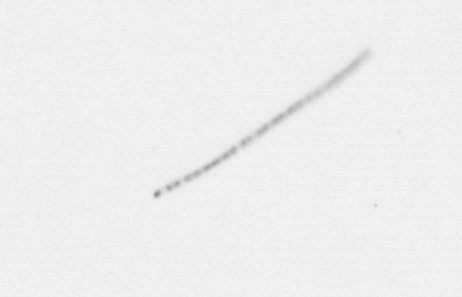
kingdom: Chromista
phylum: Ochrophyta
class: Bacillariophyceae
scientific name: Bacillariophyceae
